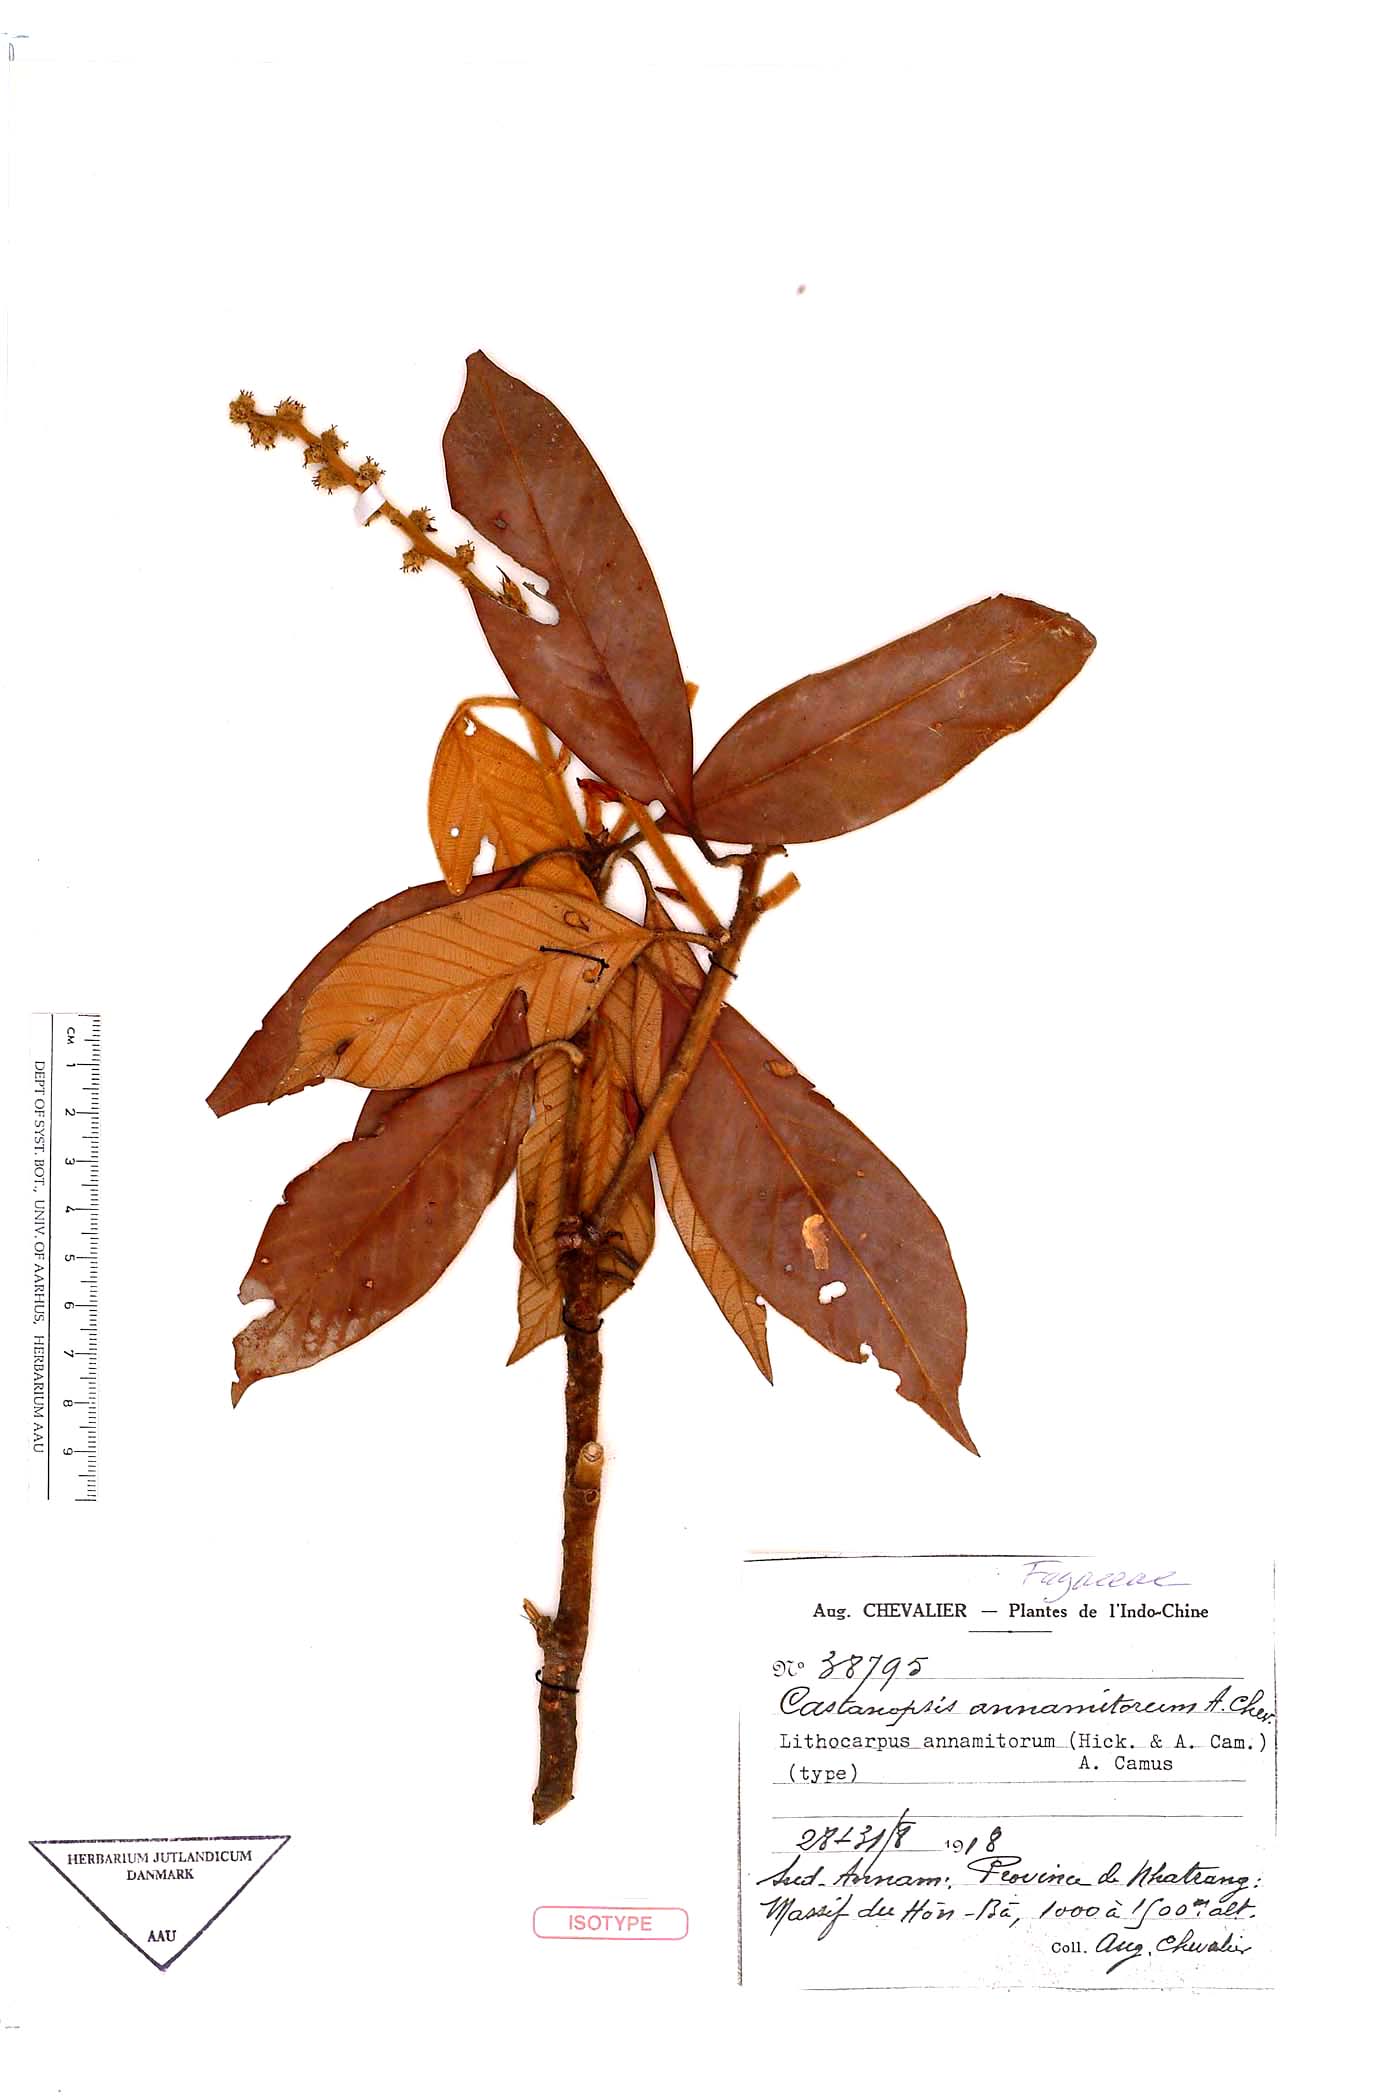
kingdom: Plantae
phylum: Tracheophyta
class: Magnoliopsida
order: Fagales
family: Fagaceae
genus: Castanopsis
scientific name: Castanopsis
